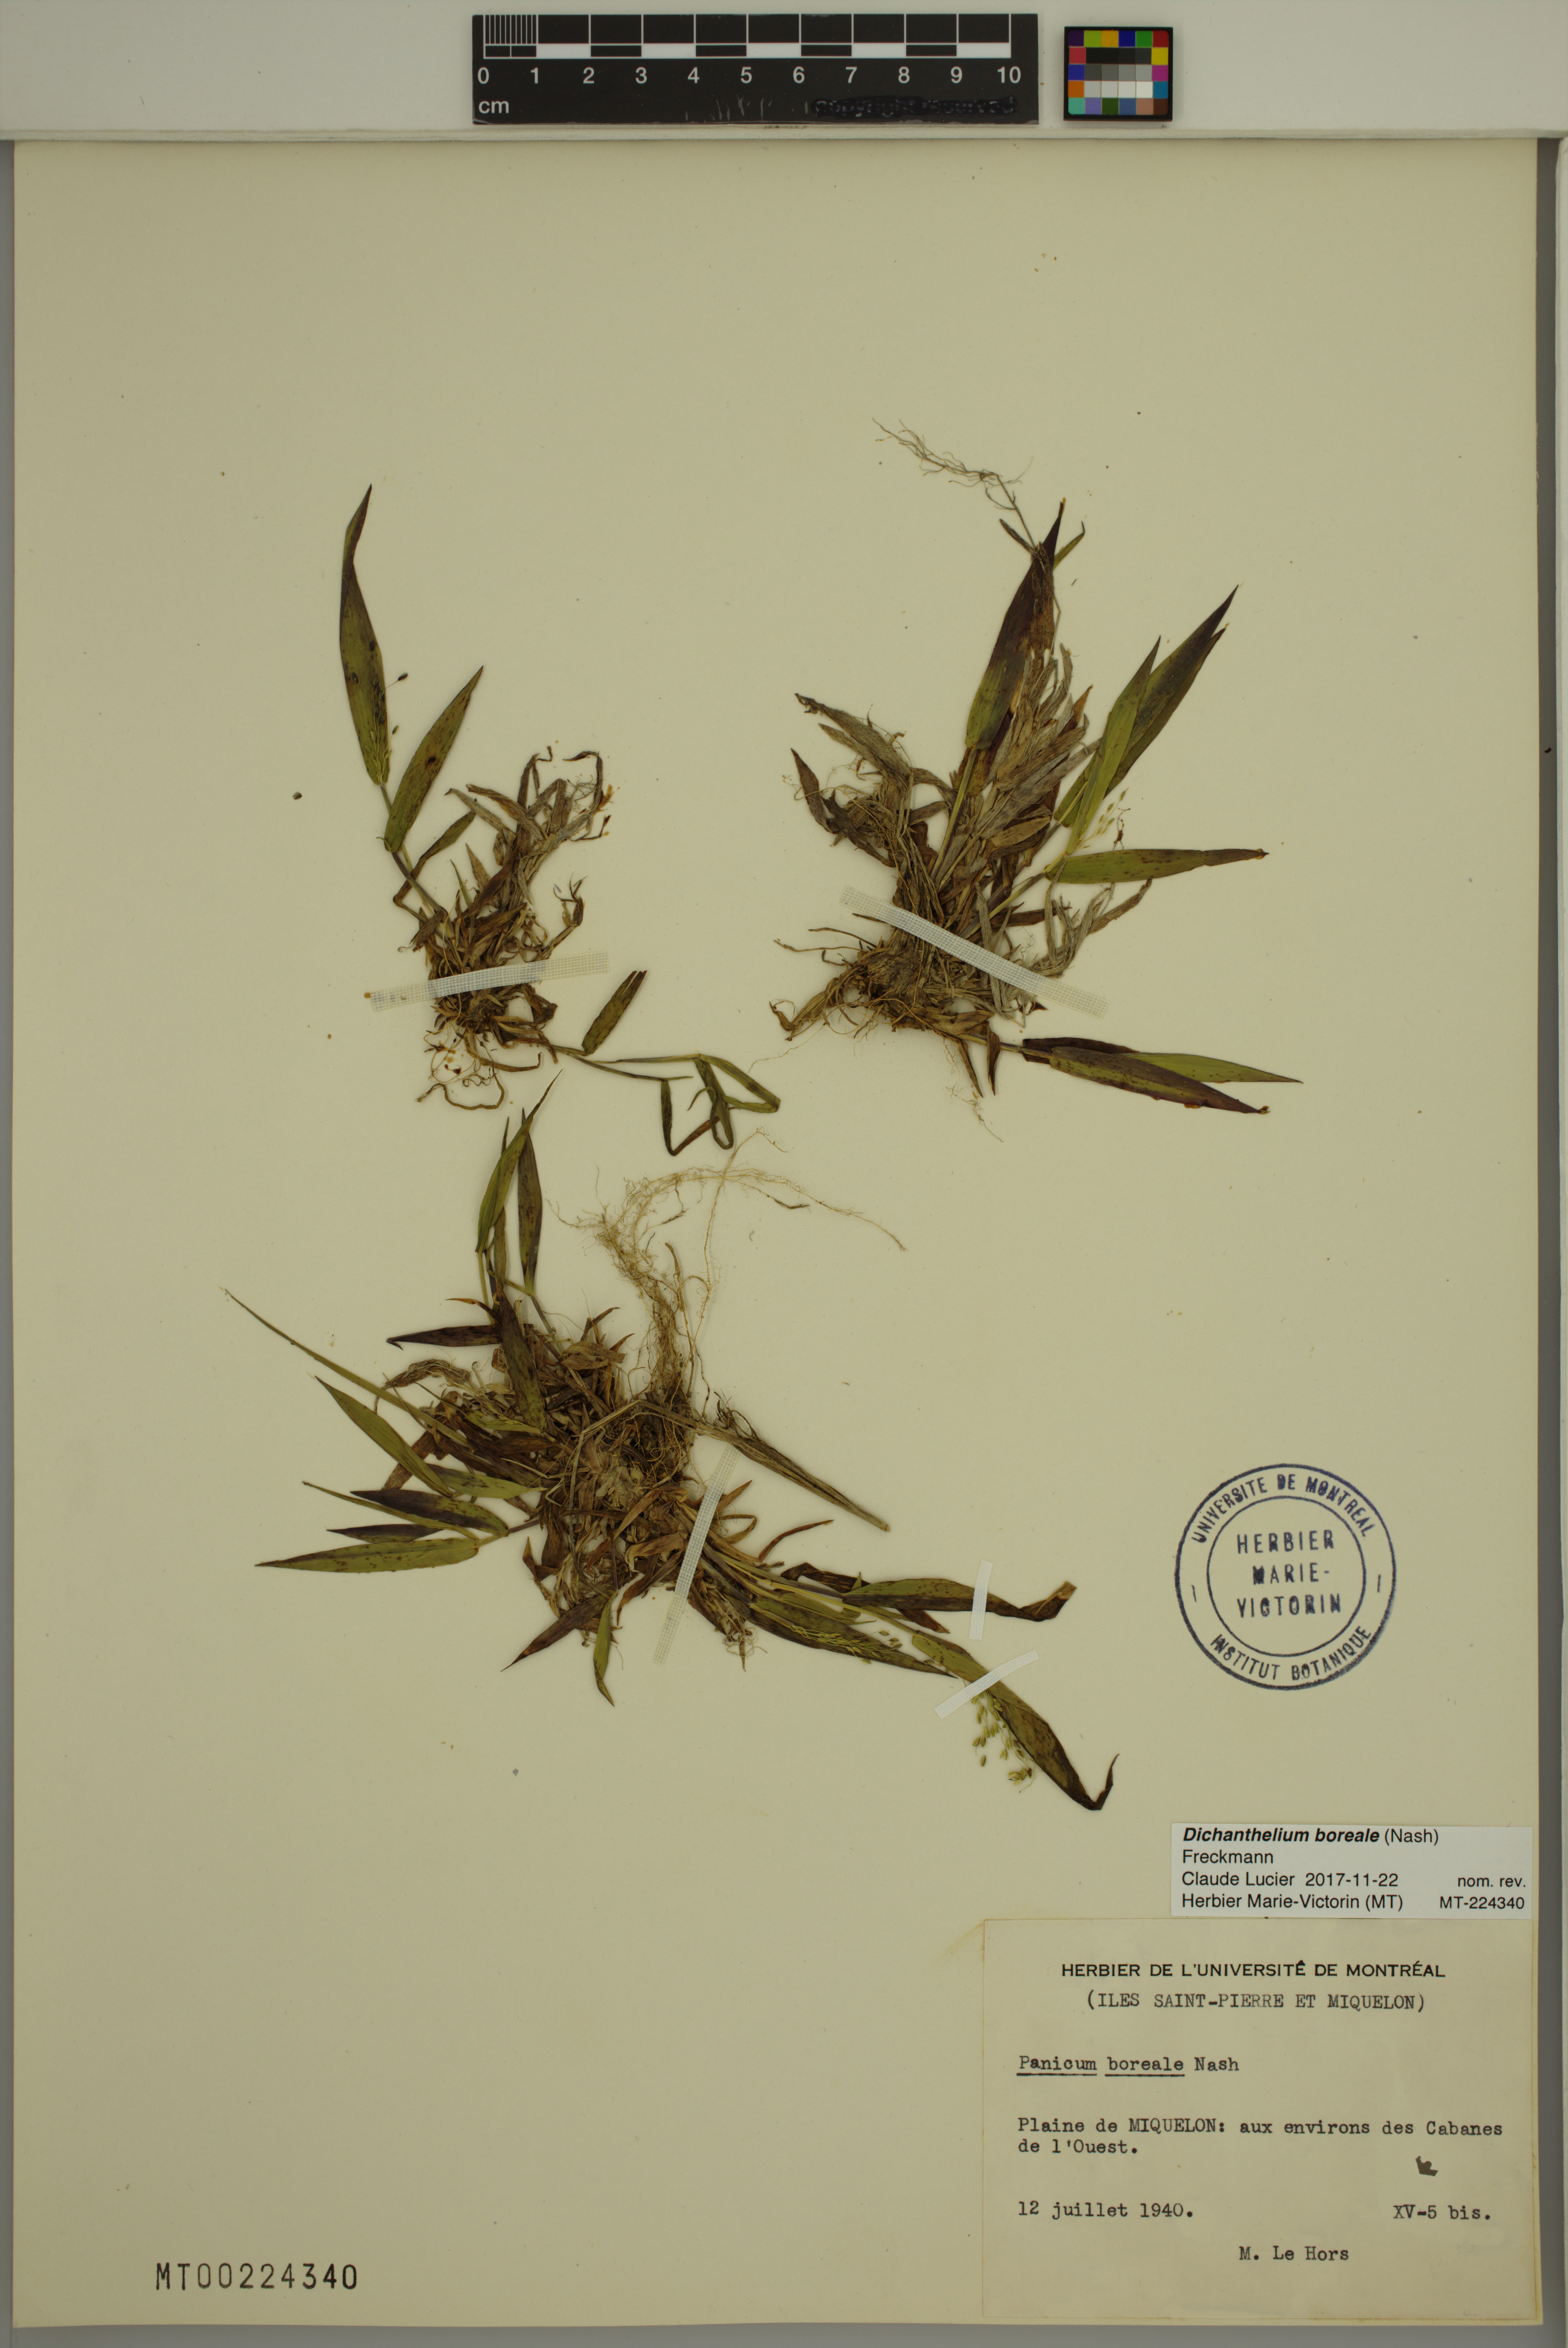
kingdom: Plantae
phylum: Tracheophyta
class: Liliopsida
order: Poales
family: Poaceae
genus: Dichanthelium
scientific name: Dichanthelium boreale
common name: Northern panicgrass
